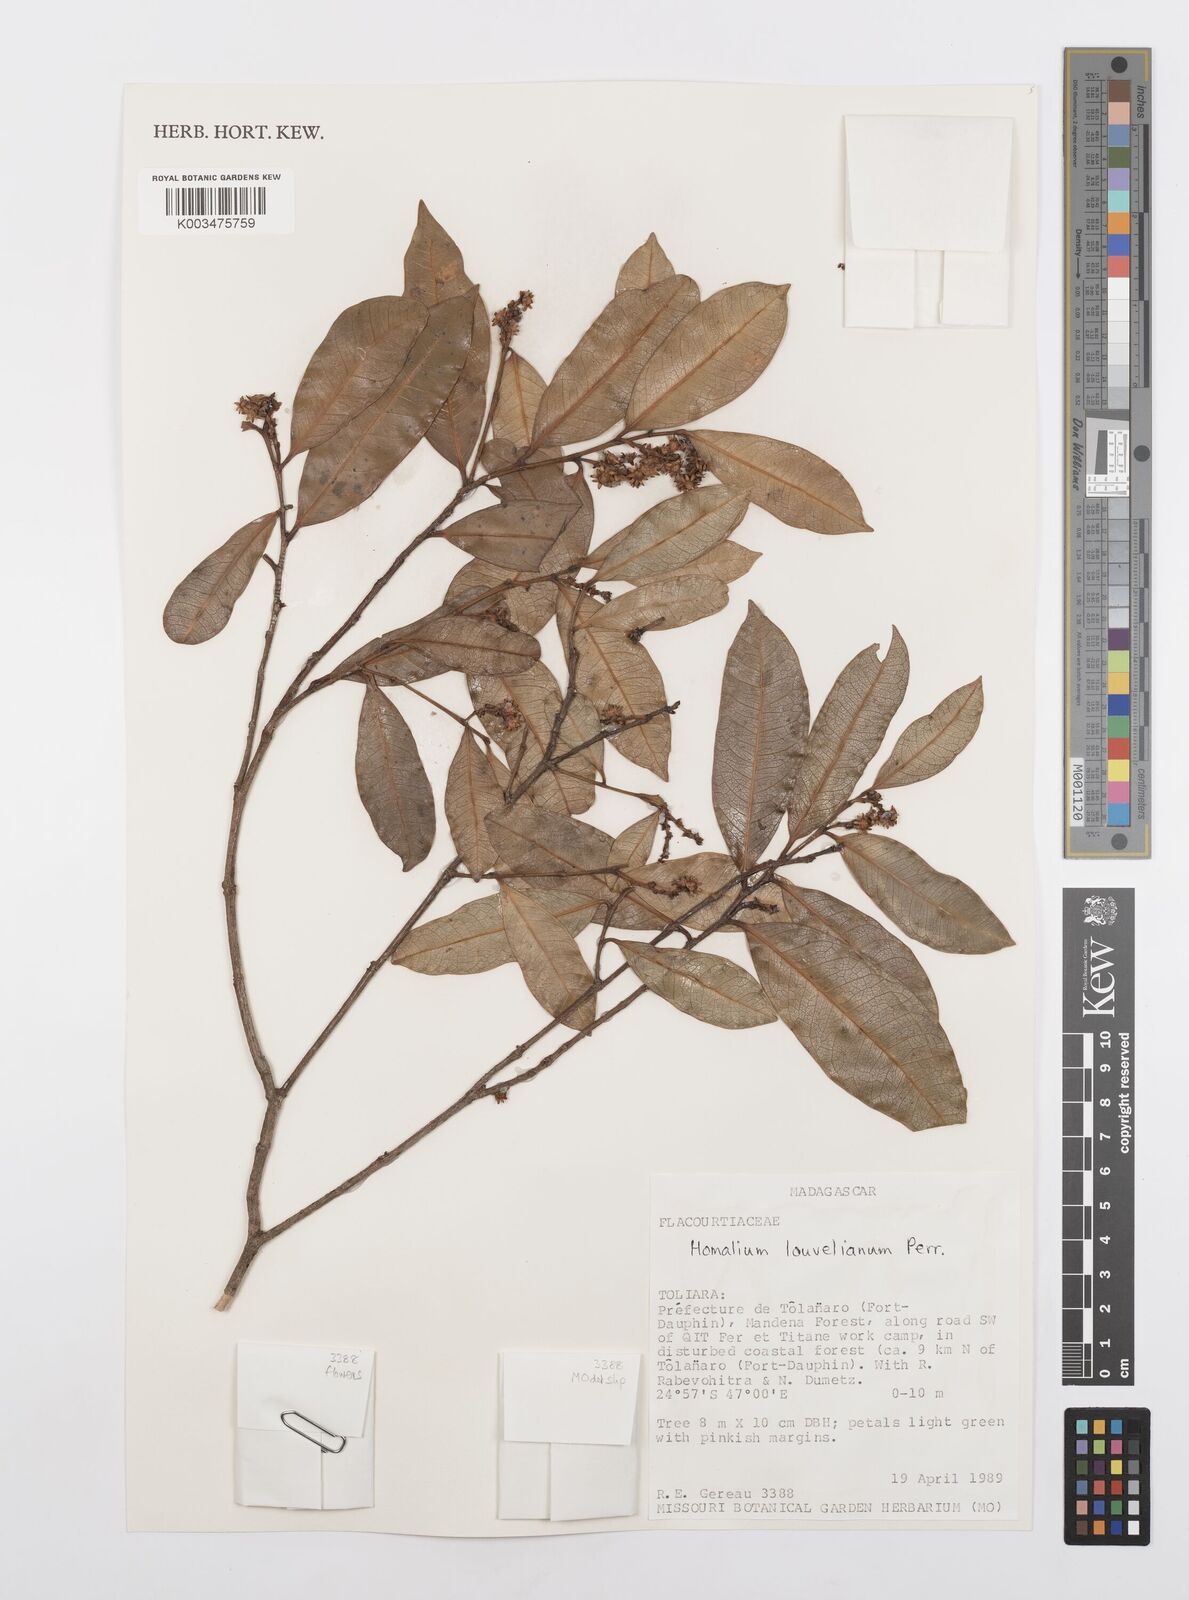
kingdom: Plantae
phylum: Tracheophyta
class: Magnoliopsida
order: Malpighiales
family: Salicaceae
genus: Homalium
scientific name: Homalium louvelianum
